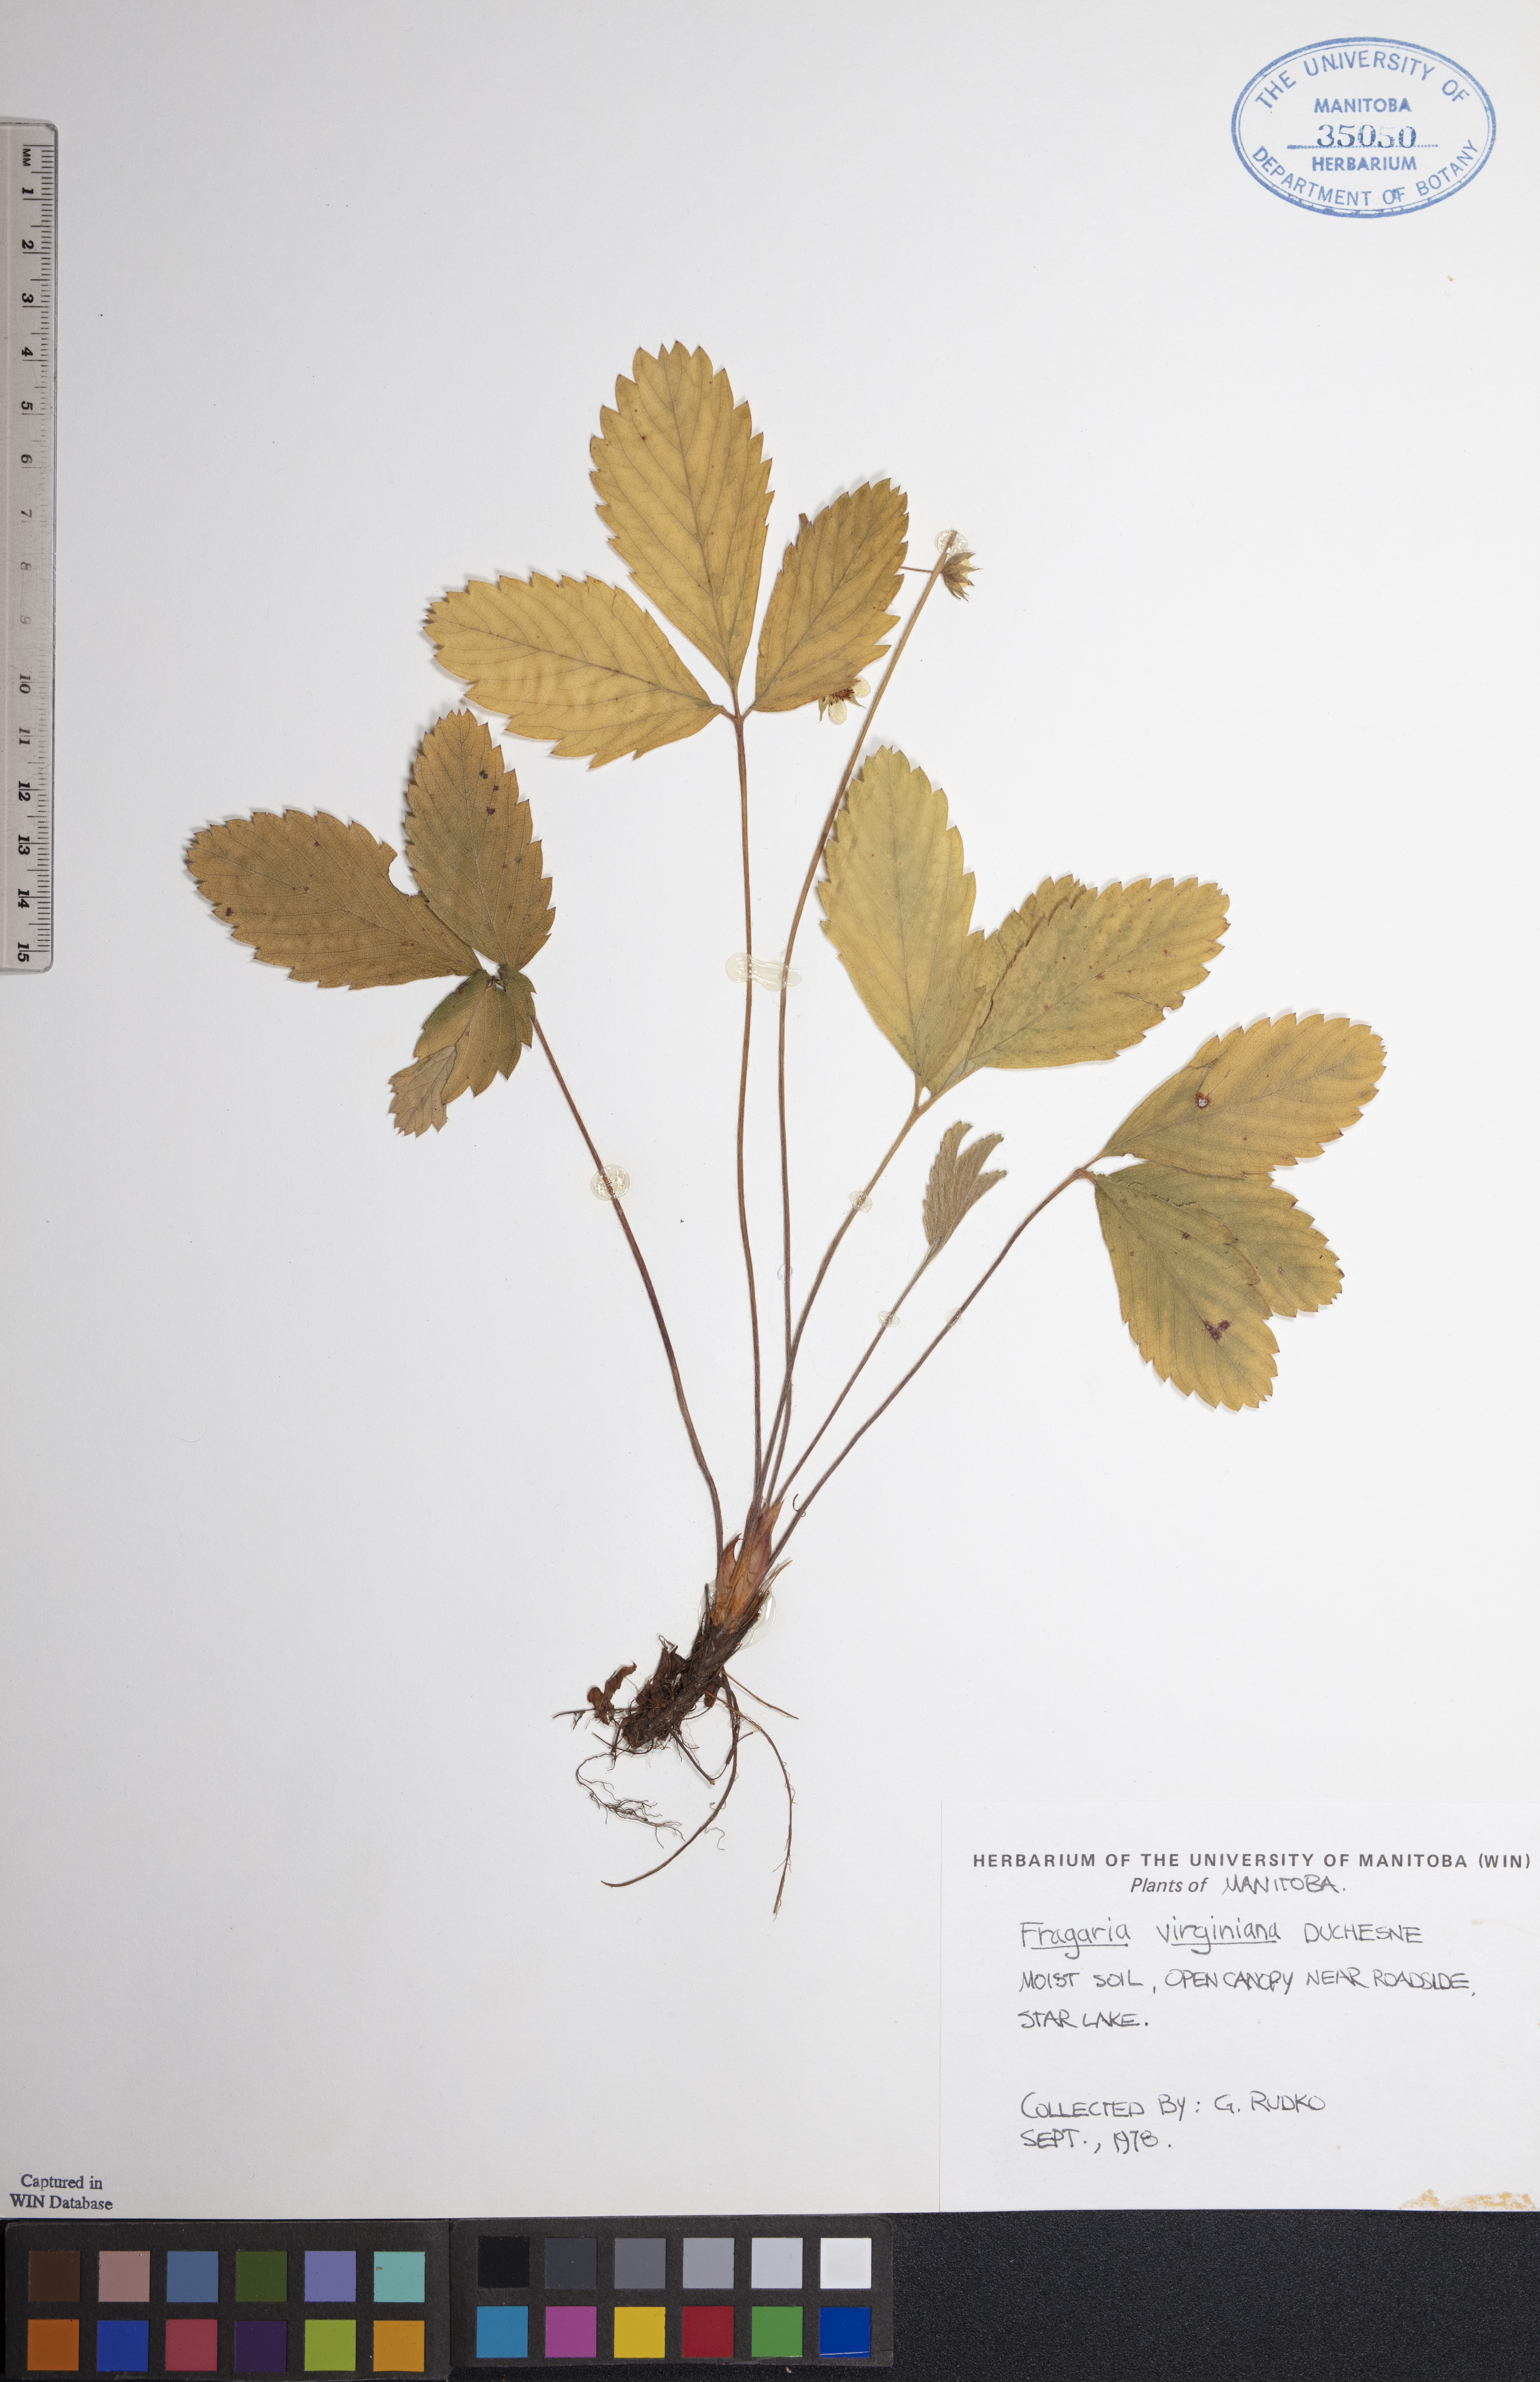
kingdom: Plantae
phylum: Tracheophyta
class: Magnoliopsida
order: Rosales
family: Rosaceae
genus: Fragaria
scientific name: Fragaria virginiana
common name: Thickleaved wild strawberry
